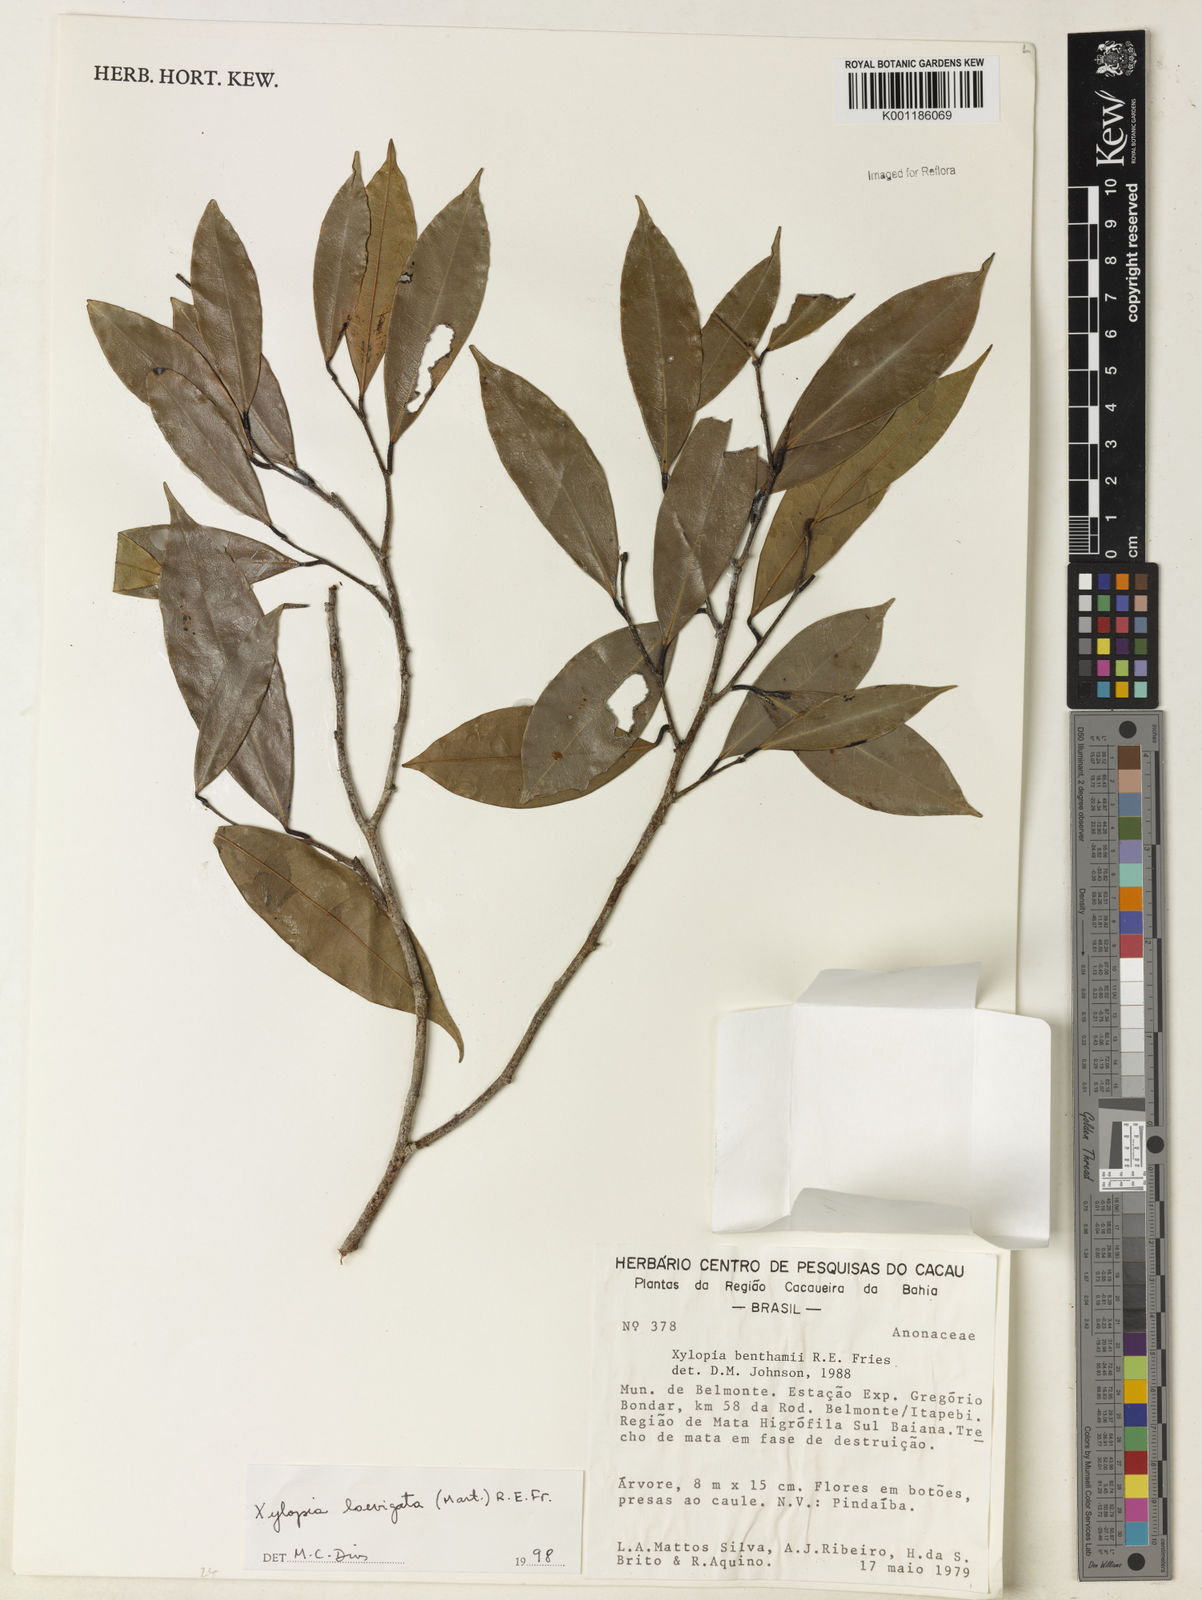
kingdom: Plantae
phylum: Tracheophyta
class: Magnoliopsida
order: Magnoliales
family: Annonaceae
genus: Xylopia
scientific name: Xylopia laevigata
